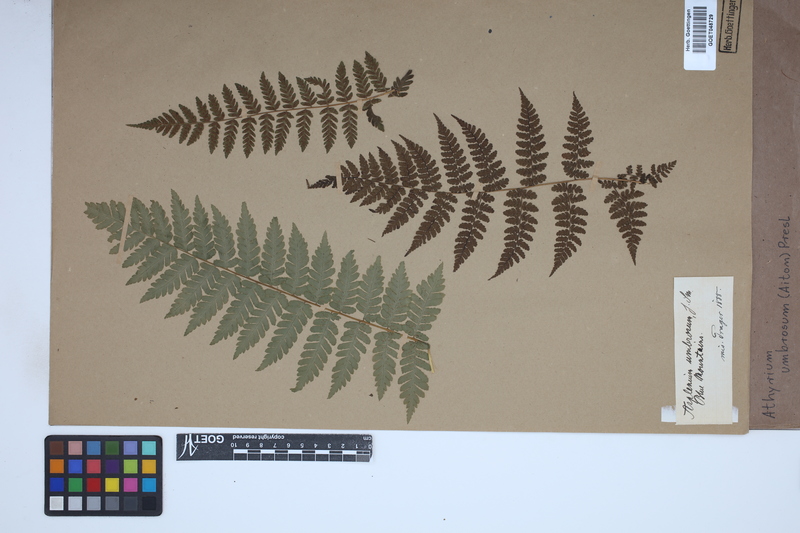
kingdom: Plantae
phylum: Tracheophyta
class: Polypodiopsida
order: Polypodiales
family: Athyriaceae
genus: Diplazium
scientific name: Diplazium caudatum
